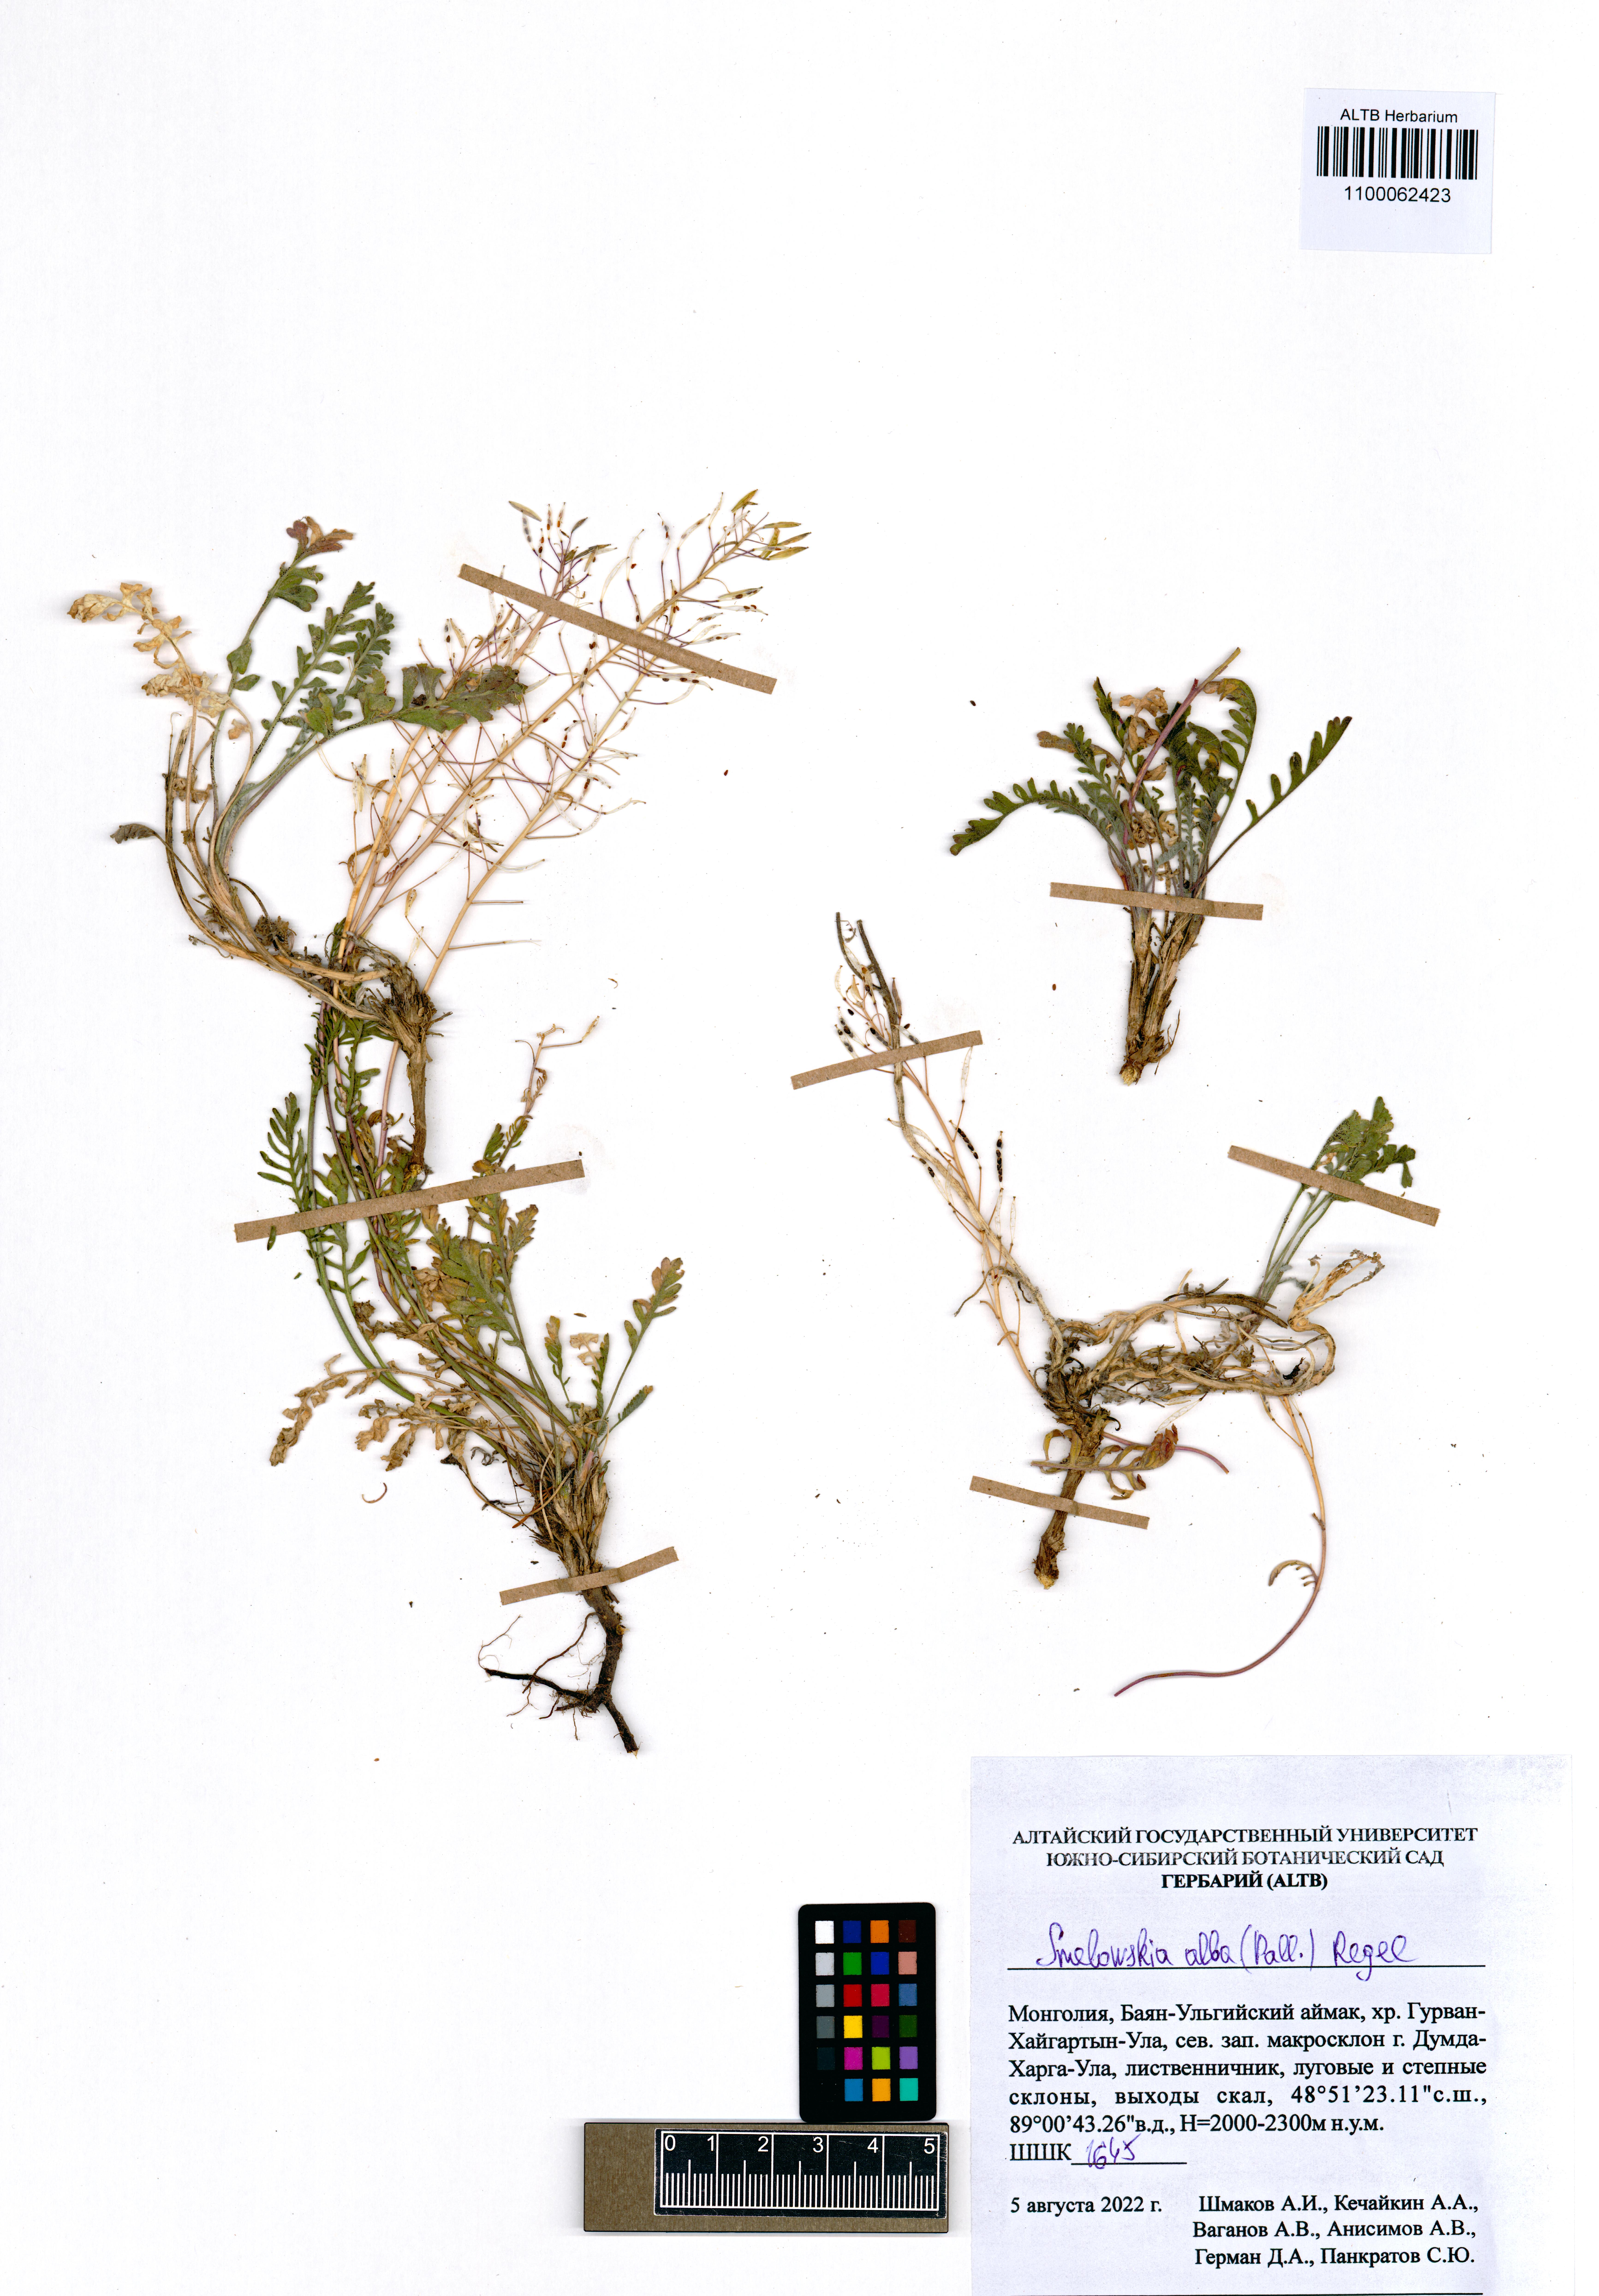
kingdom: Plantae
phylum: Tracheophyta
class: Magnoliopsida
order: Brassicales
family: Brassicaceae
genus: Smelowskia
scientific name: Smelowskia alba
